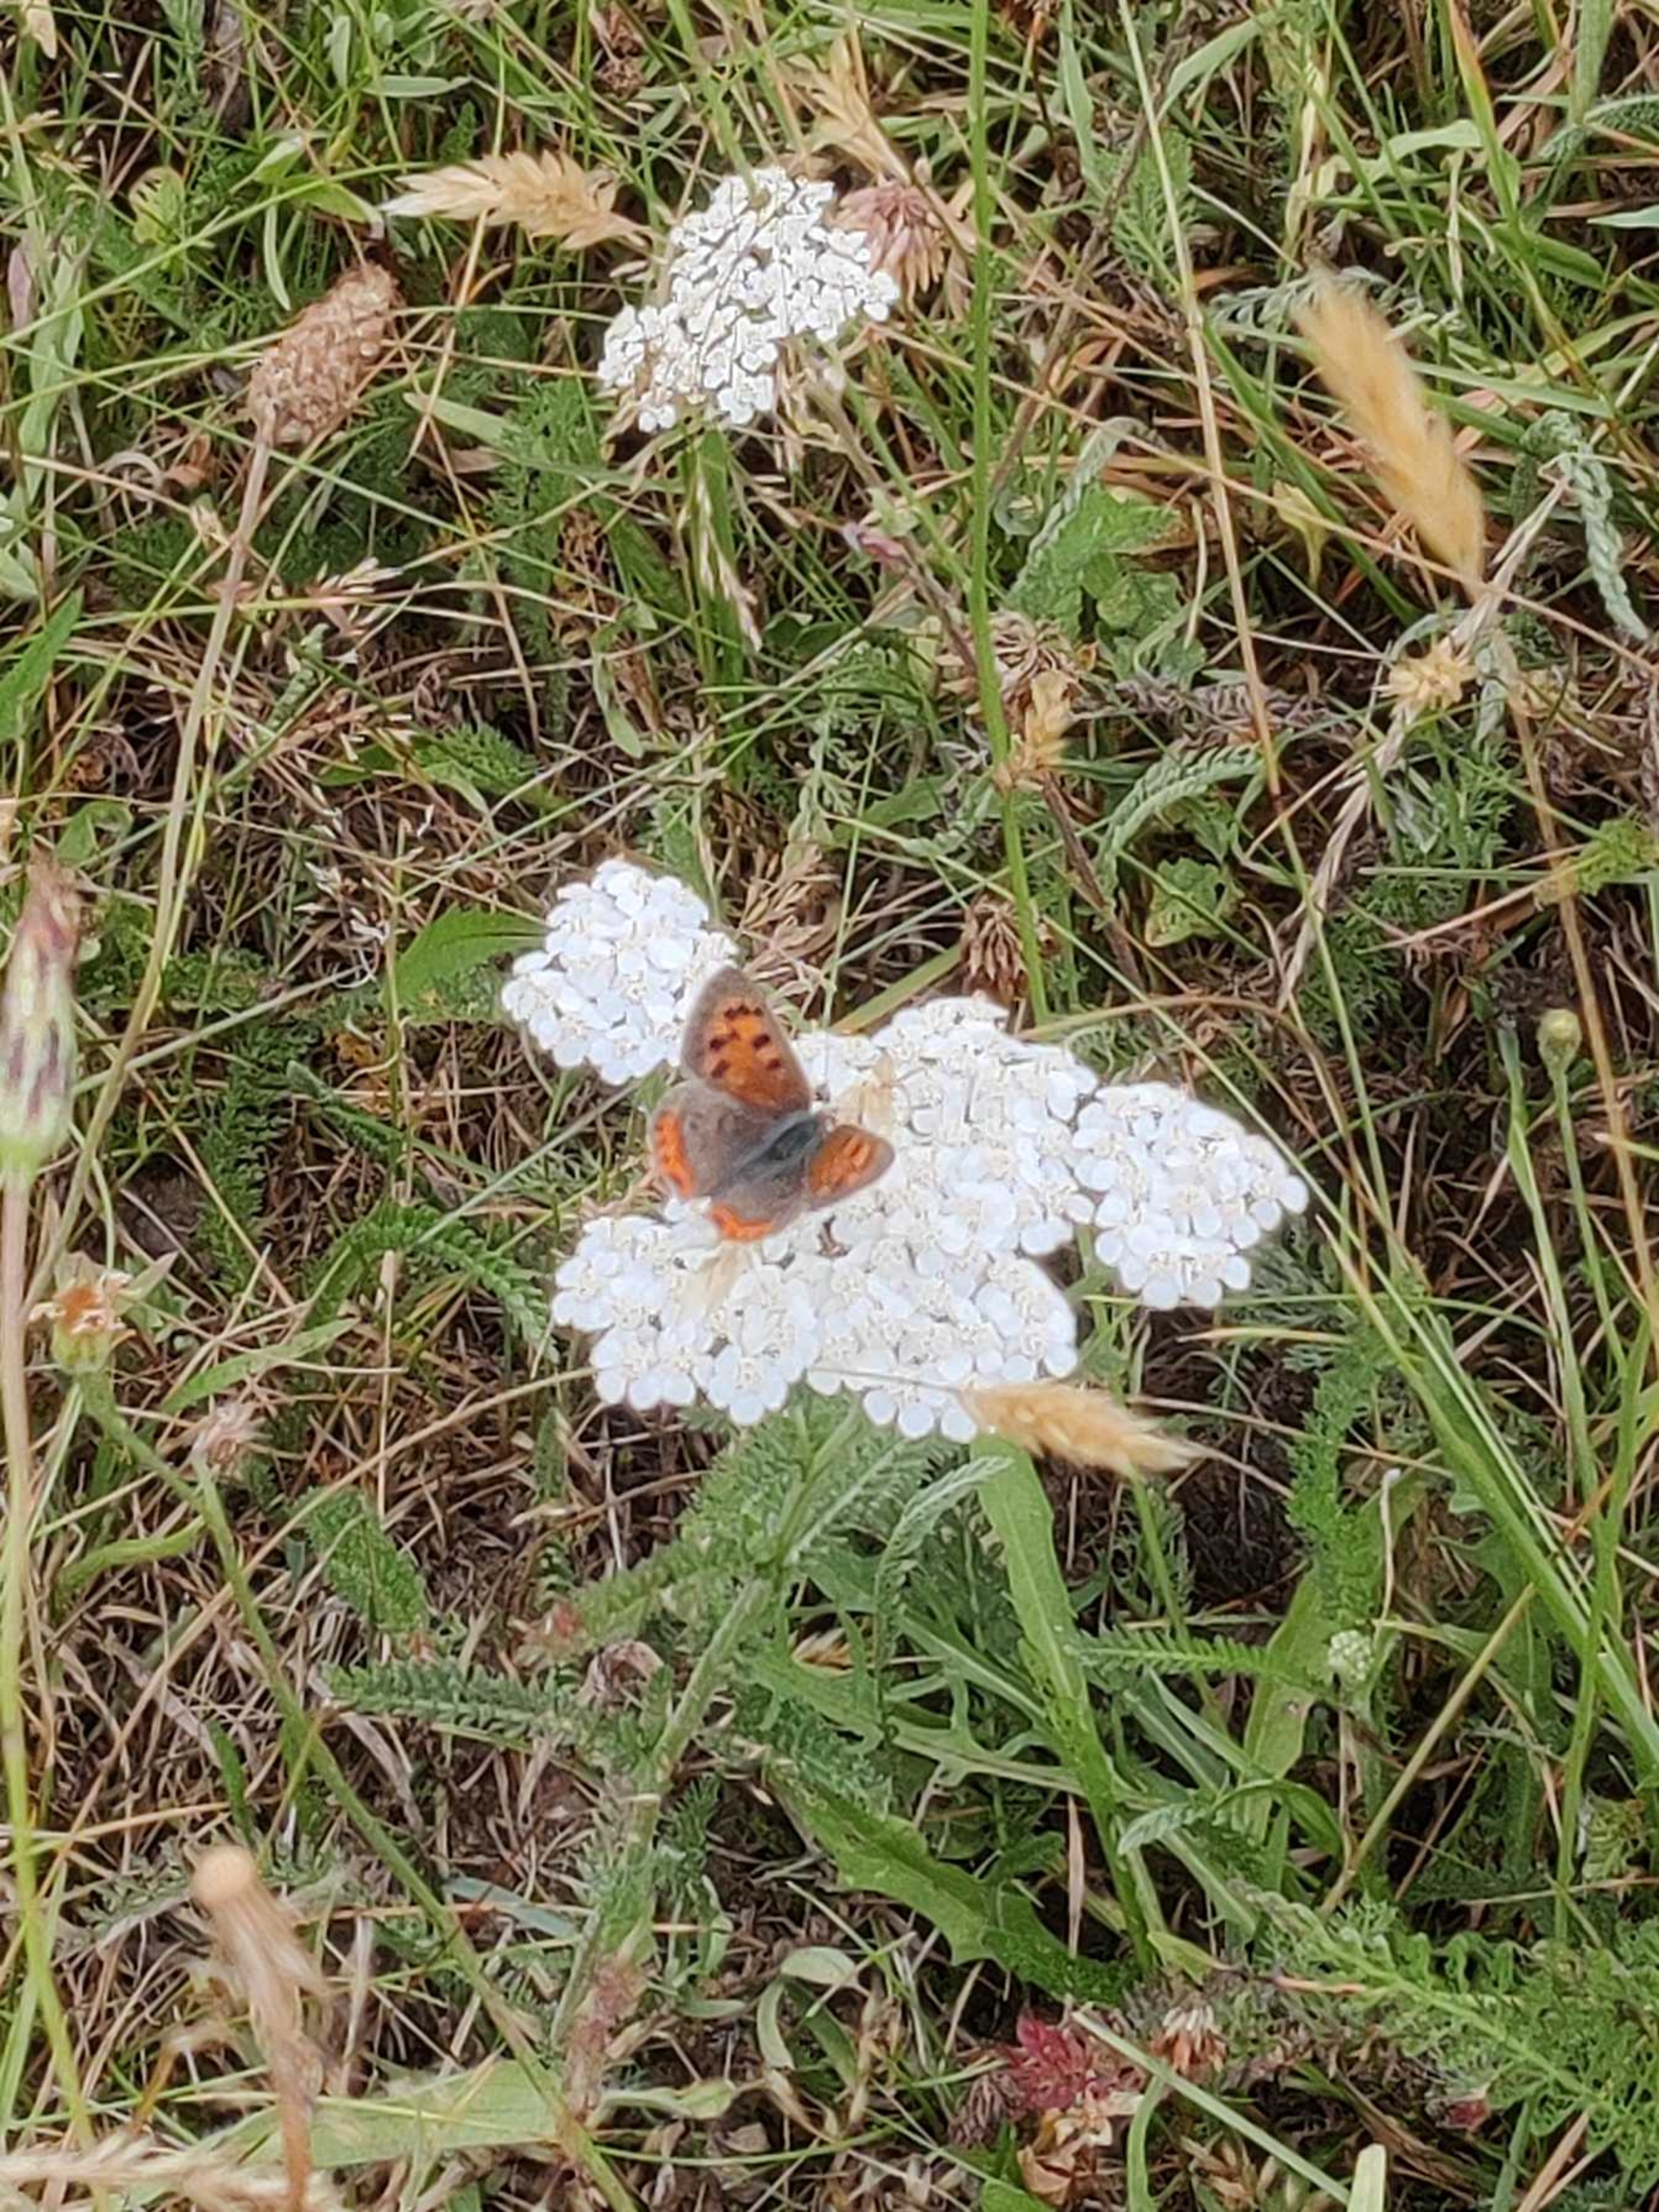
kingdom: Animalia
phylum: Arthropoda
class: Insecta
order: Lepidoptera
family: Lycaenidae
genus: Lycaena
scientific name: Lycaena phlaeas
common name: Lille ildfugl
